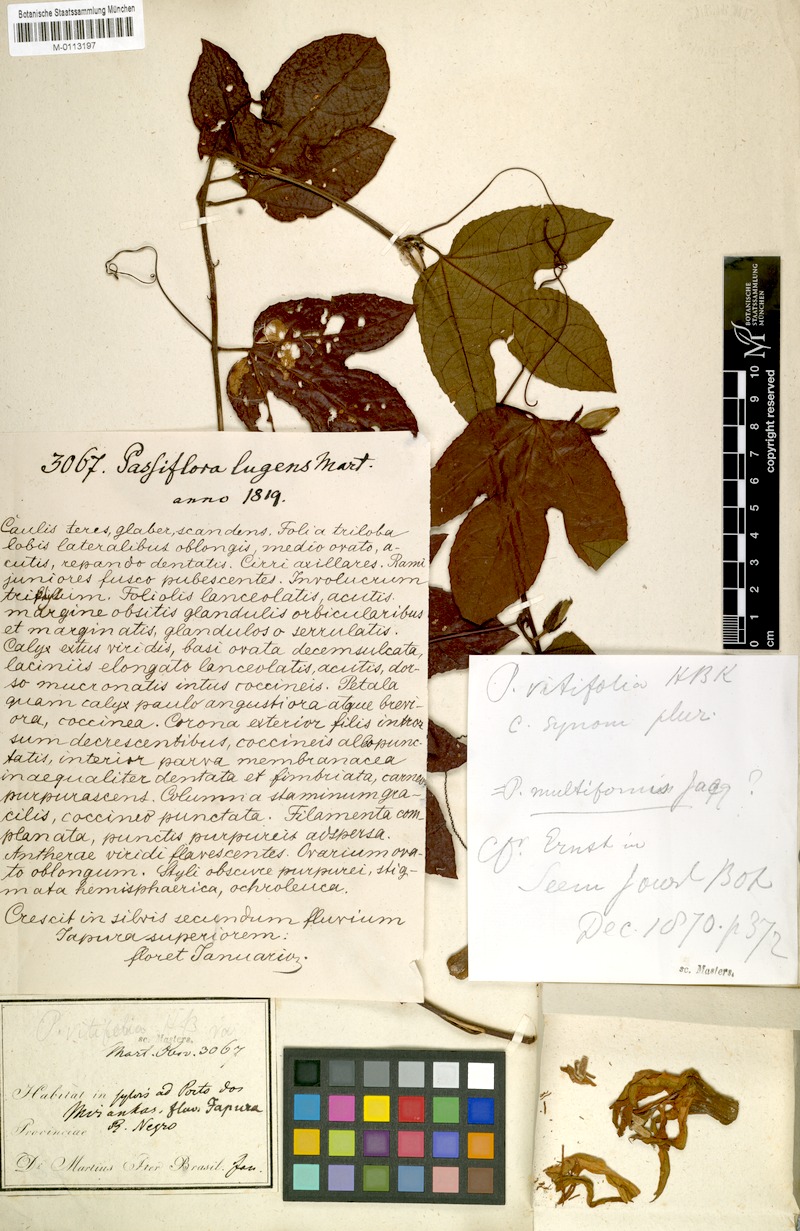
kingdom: Plantae
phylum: Tracheophyta
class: Magnoliopsida
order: Malpighiales
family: Passifloraceae
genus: Passiflora
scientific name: Passiflora vitifolia
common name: Perfumed passionflower
